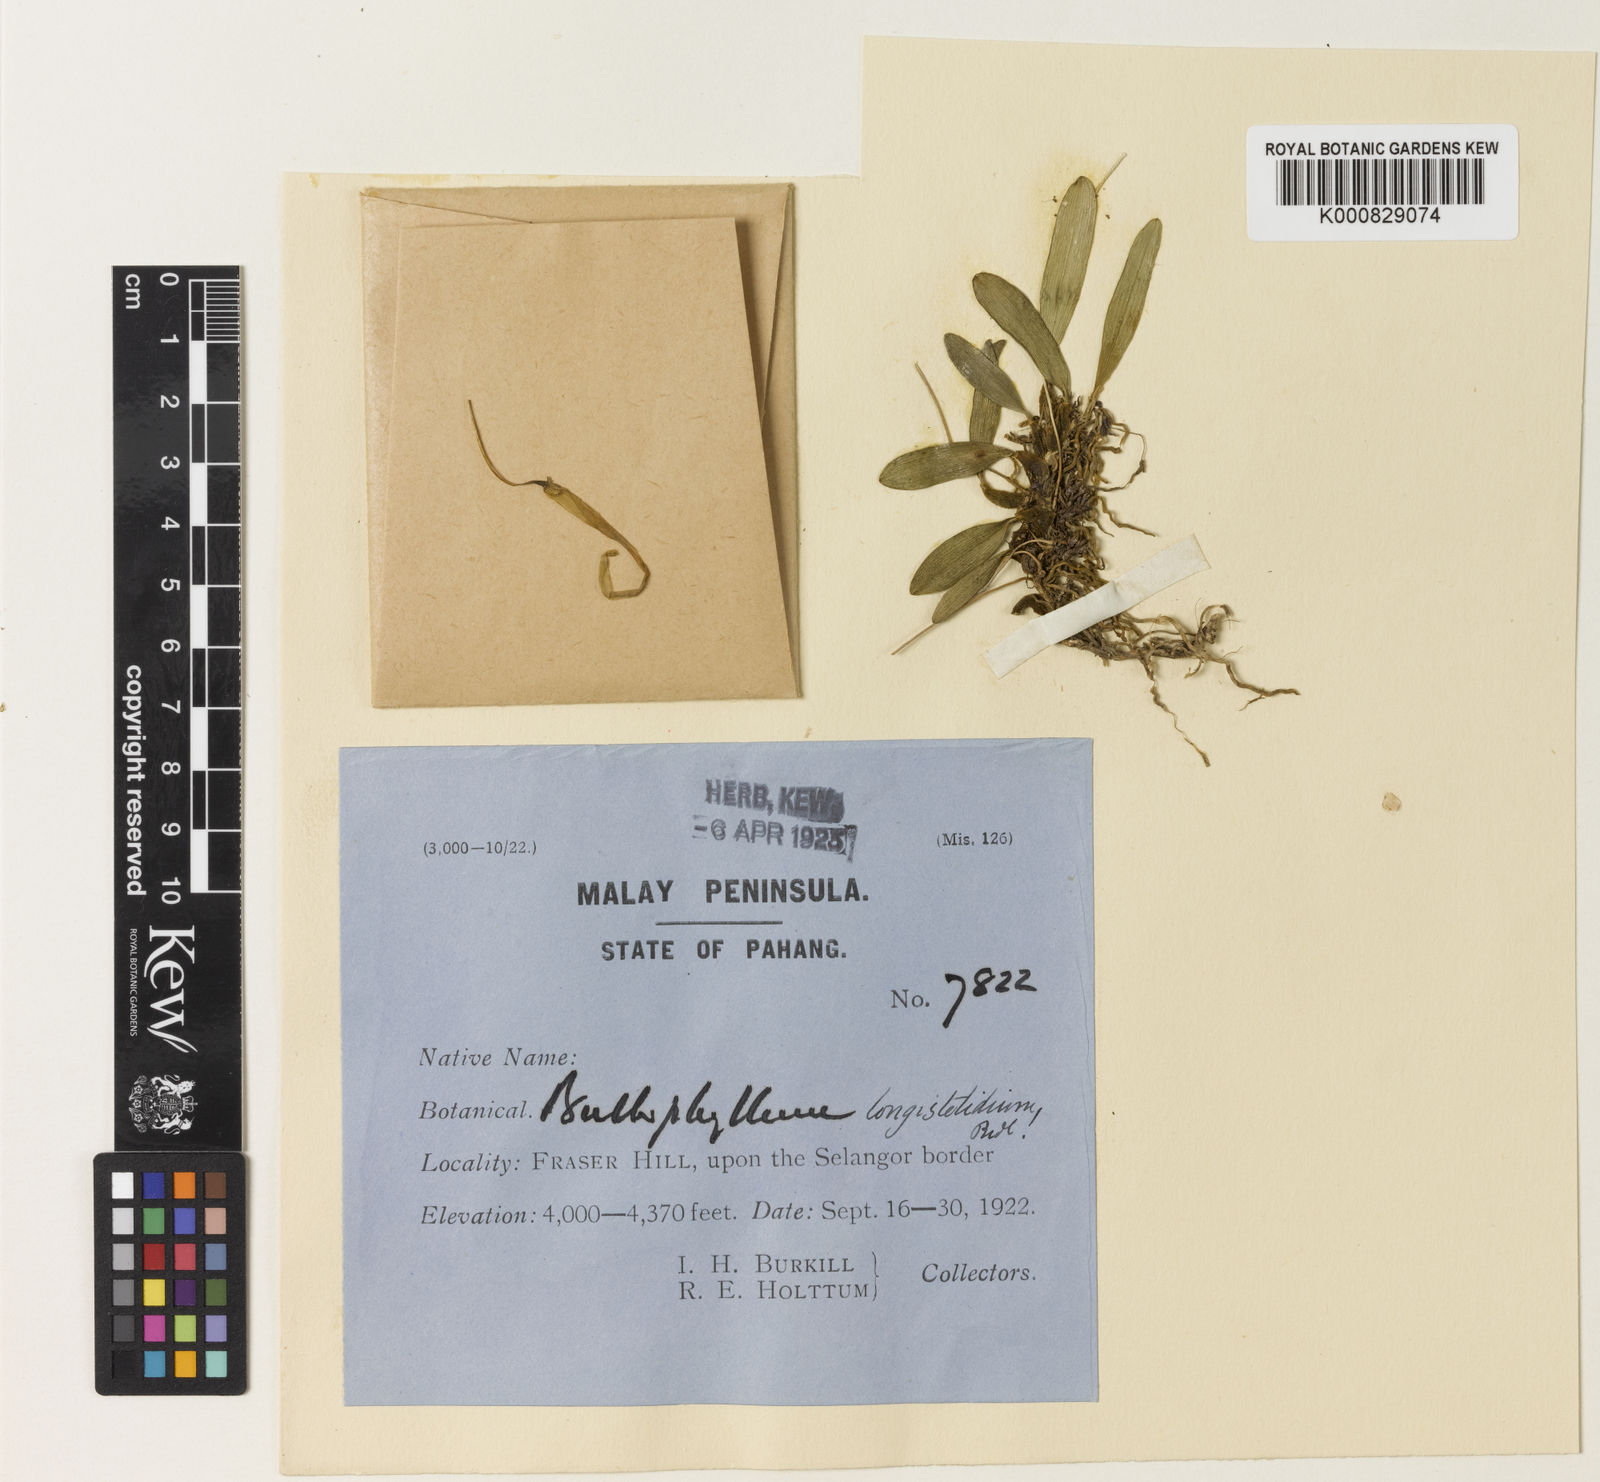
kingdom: Plantae
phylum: Tracheophyta
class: Liliopsida
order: Asparagales
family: Orchidaceae
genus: Bulbophyllum
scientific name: Bulbophyllum longistelidium
